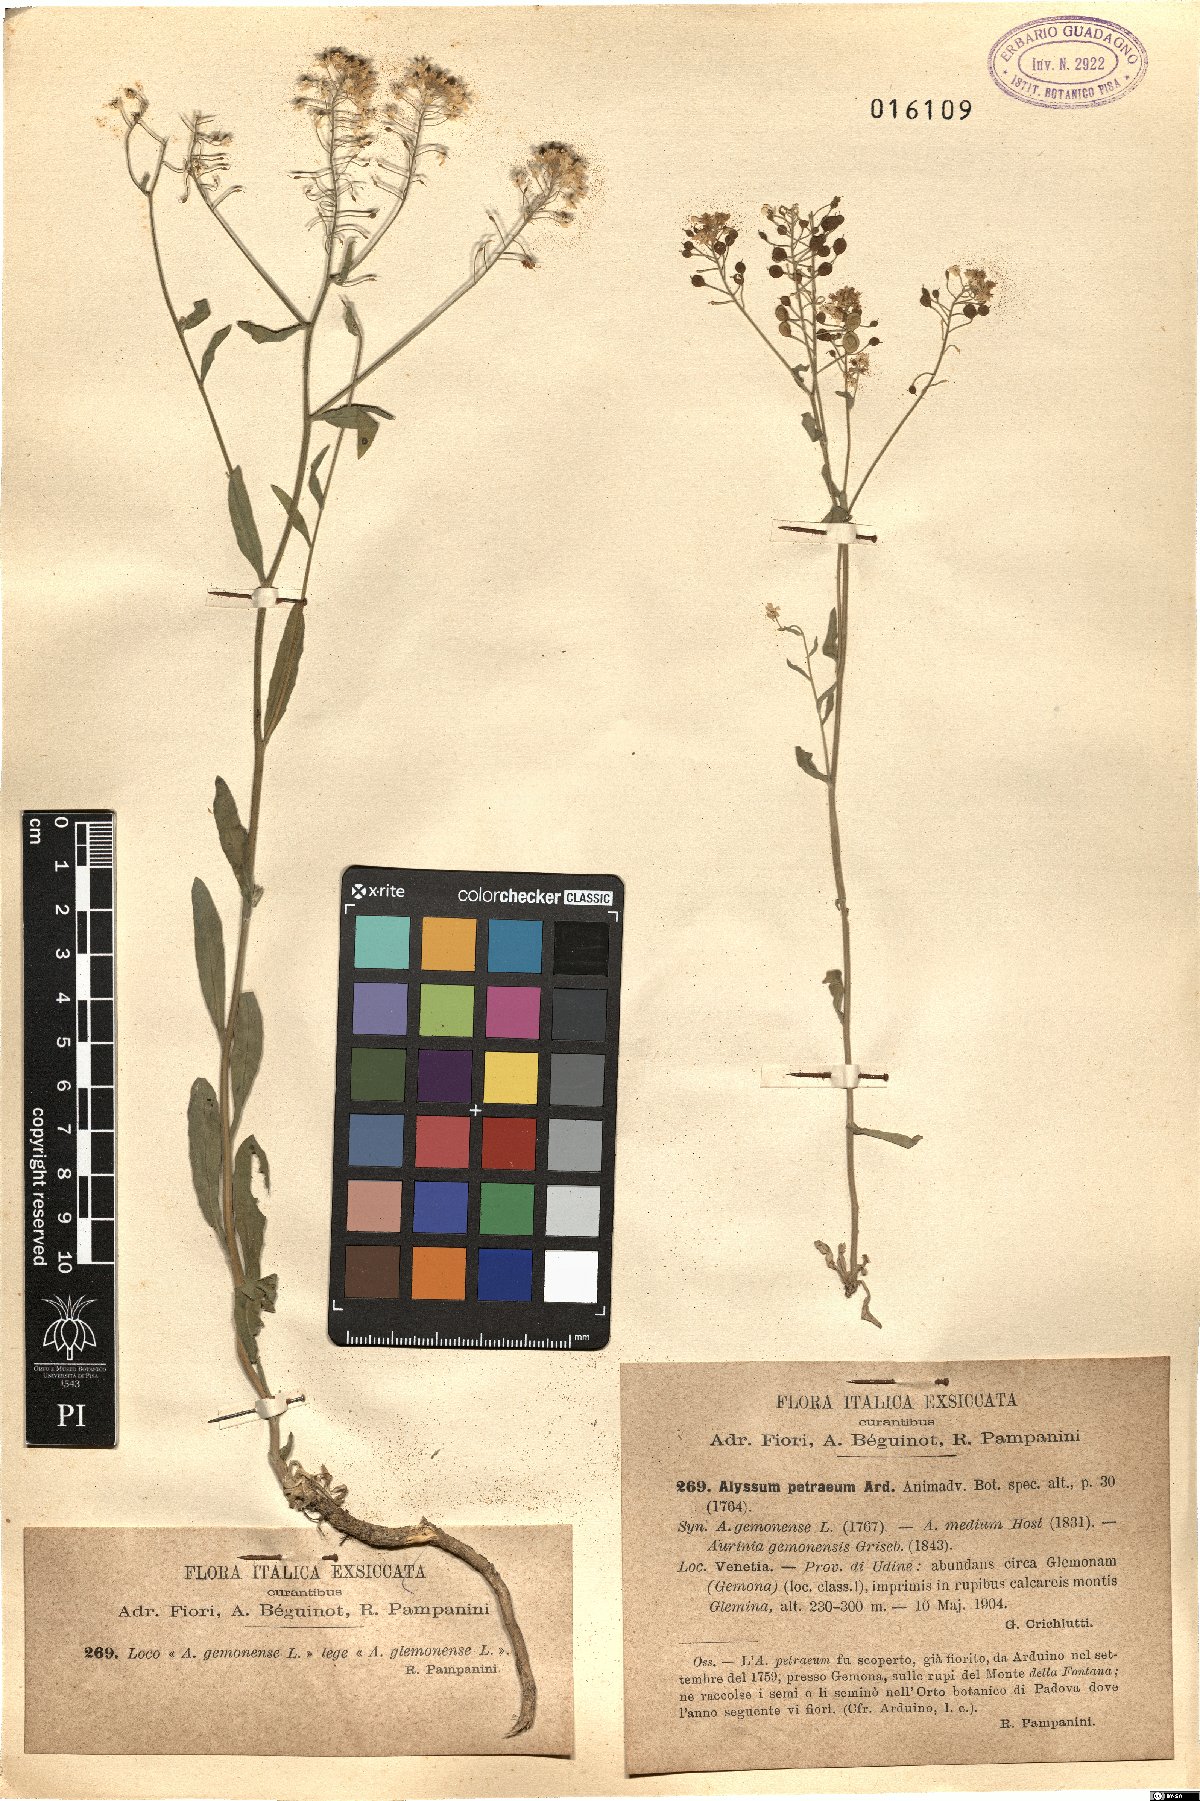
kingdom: Plantae
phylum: Tracheophyta
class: Magnoliopsida
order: Brassicales
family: Brassicaceae
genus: Aurinia
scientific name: Aurinia petraea
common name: Goldentuft
